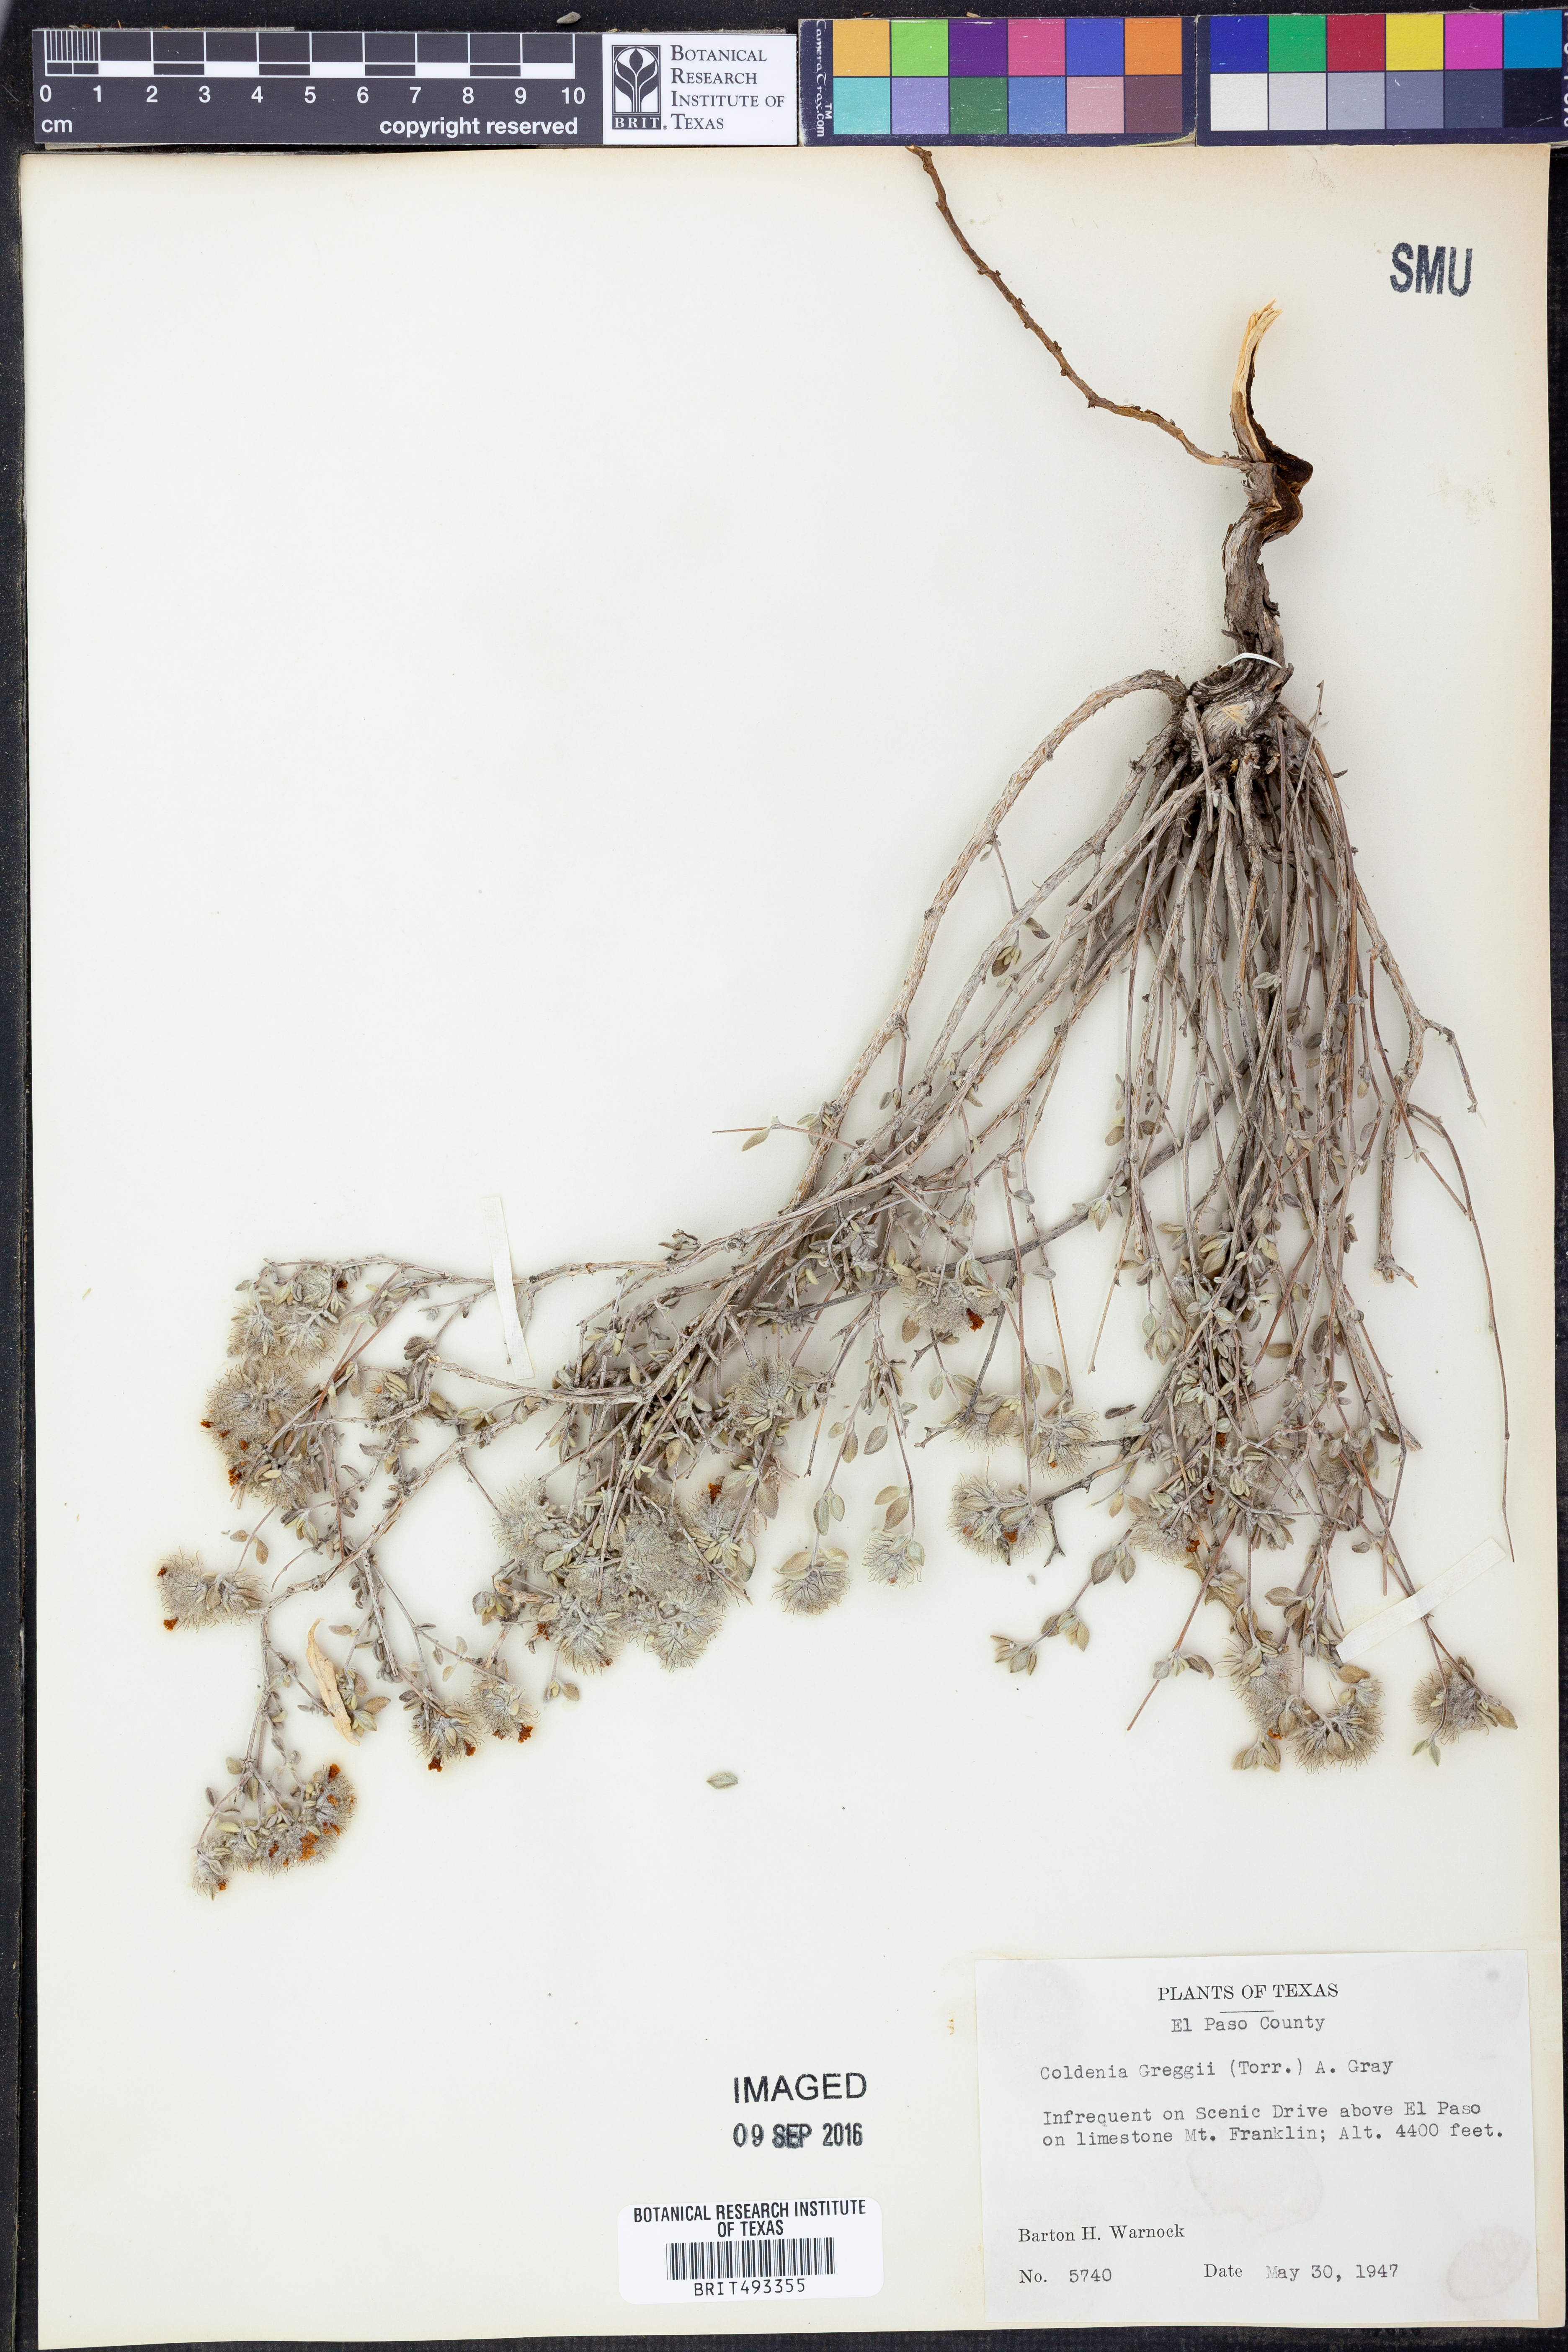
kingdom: Plantae
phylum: Tracheophyta
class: Magnoliopsida
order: Boraginales
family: Ehretiaceae
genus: Tiquilia
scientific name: Tiquilia greggii
